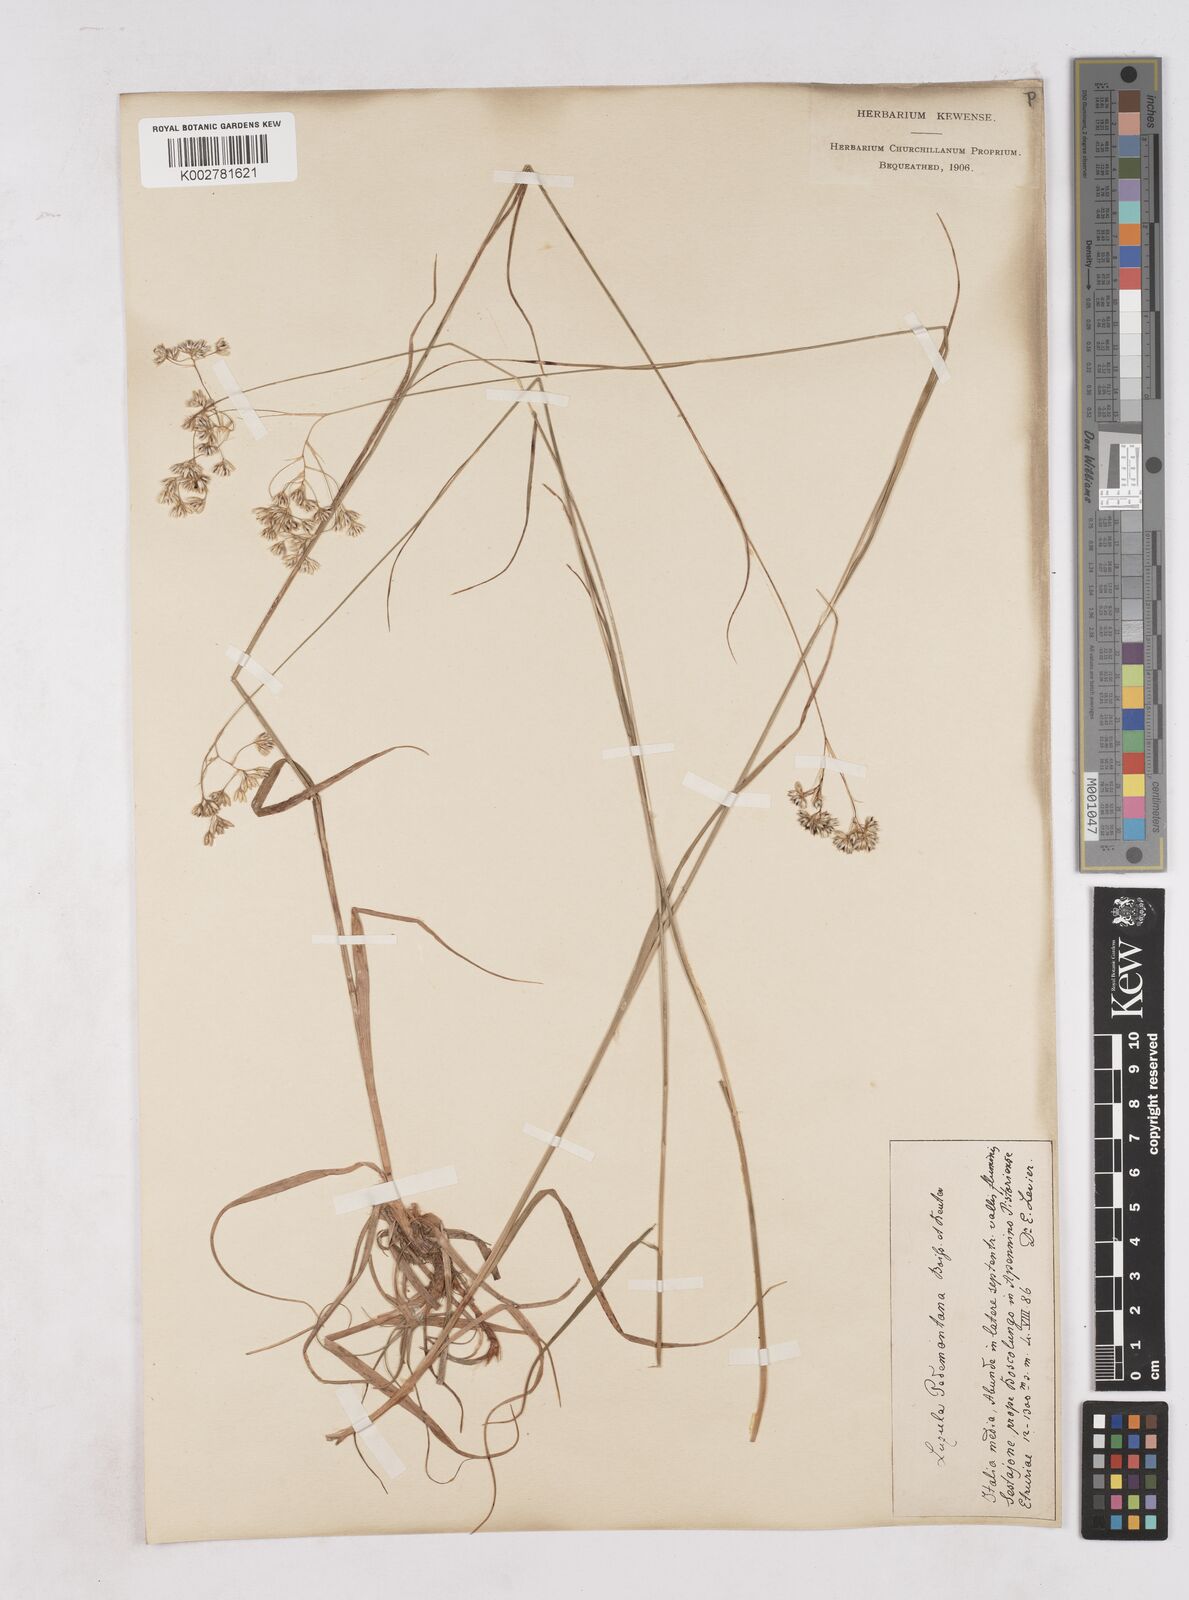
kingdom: Plantae
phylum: Tracheophyta
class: Liliopsida
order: Poales
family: Juncaceae
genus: Luzula
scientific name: Luzula pedemontana
